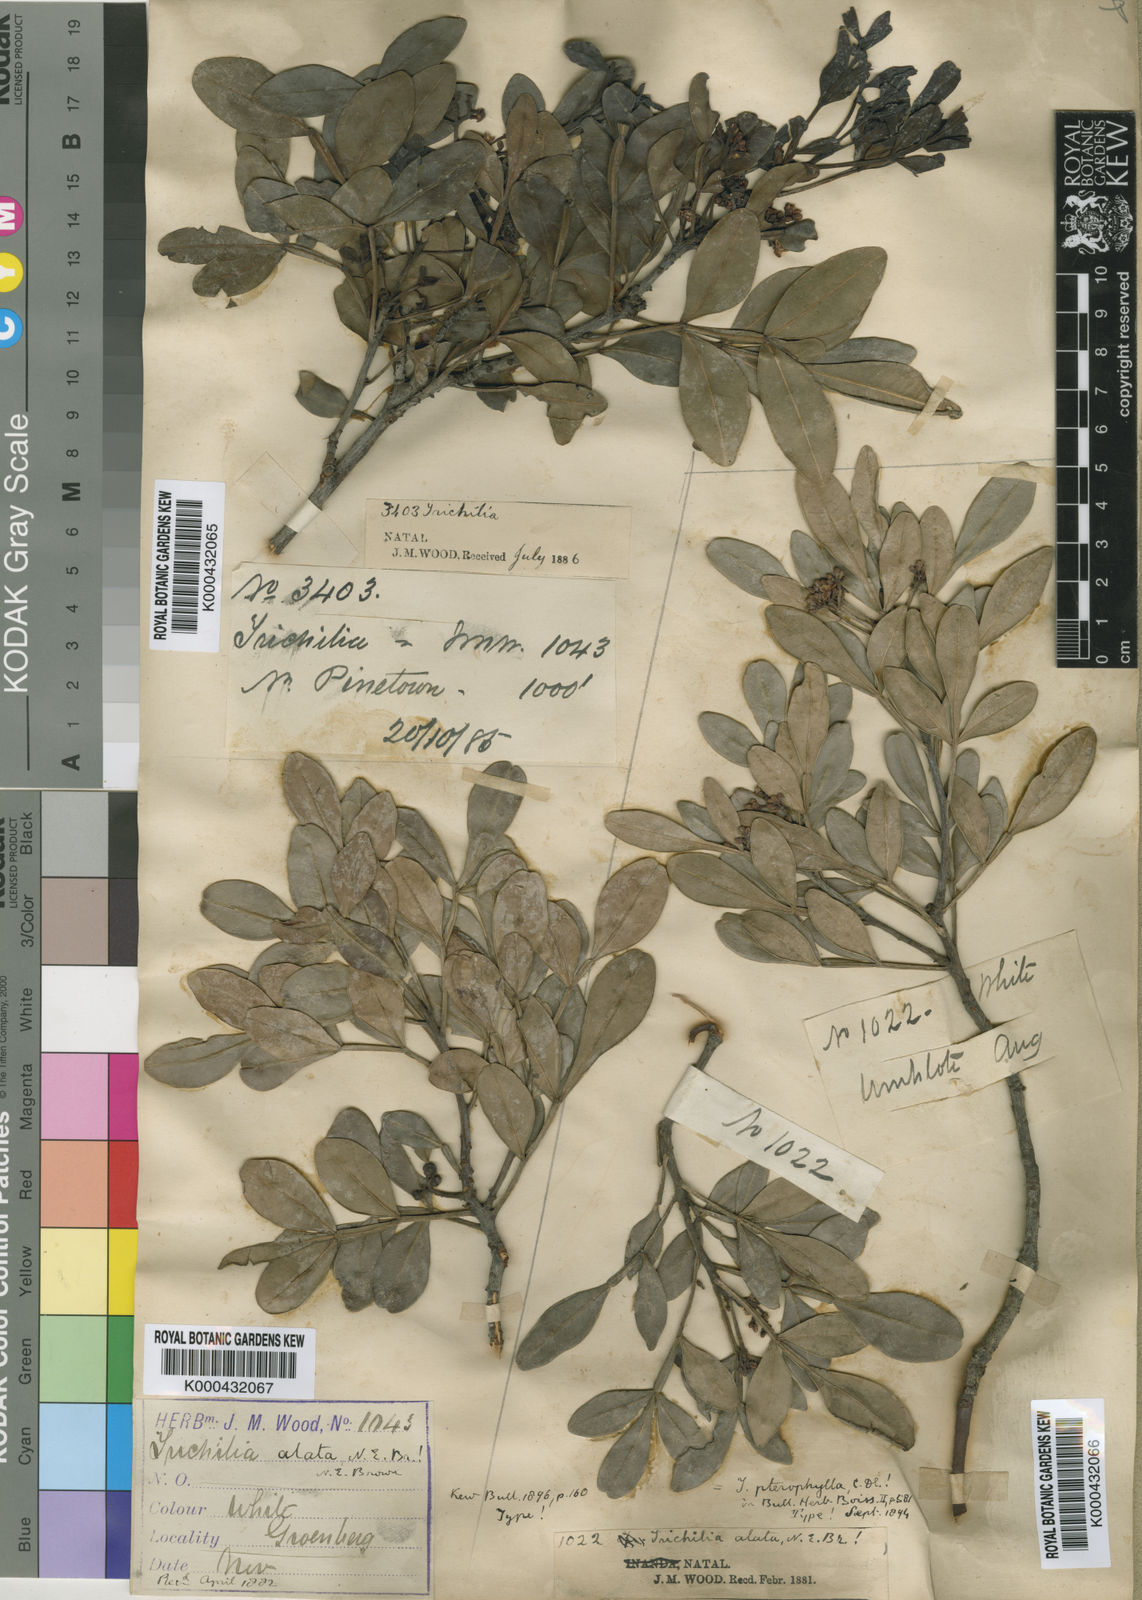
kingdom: Plantae
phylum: Tracheophyta
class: Magnoliopsida
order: Sapindales
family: Meliaceae
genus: Ekebergia
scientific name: Ekebergia pterophylla
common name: Cape ash
